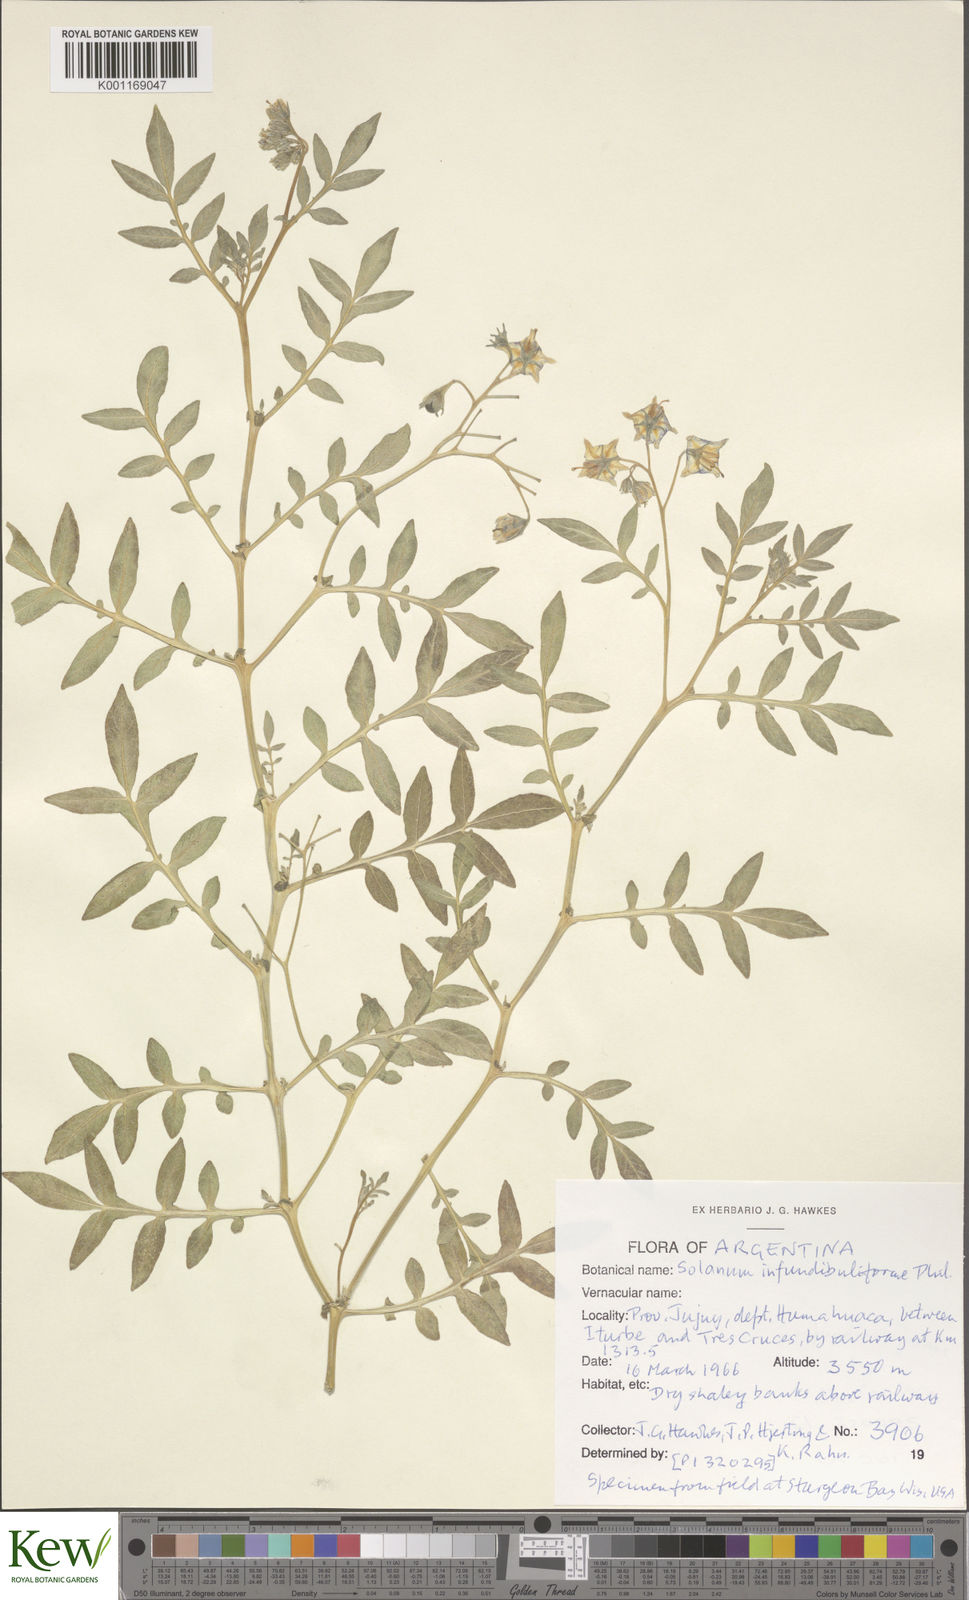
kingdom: Plantae
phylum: Tracheophyta
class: Magnoliopsida
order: Solanales
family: Solanaceae
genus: Solanum
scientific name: Solanum infundibuliforme
